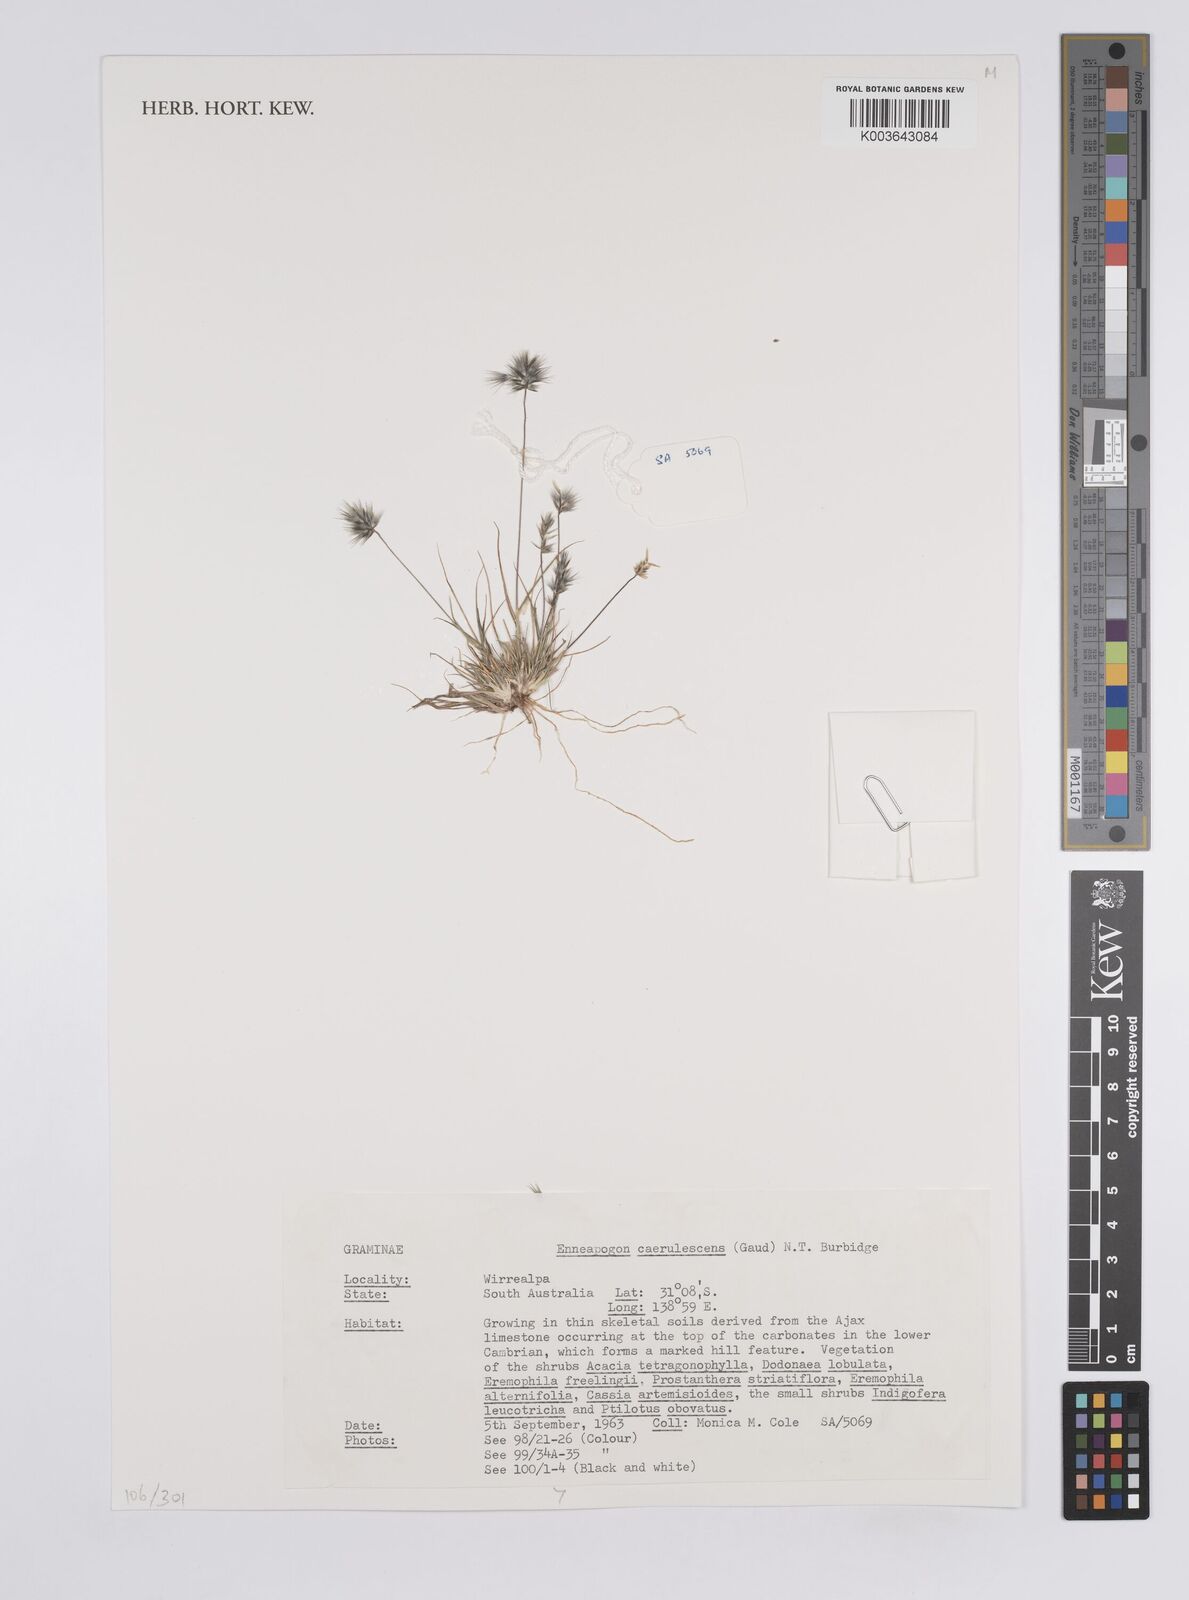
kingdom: Plantae
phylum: Tracheophyta
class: Liliopsida
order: Poales
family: Poaceae
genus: Enneapogon
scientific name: Enneapogon caerulescens
